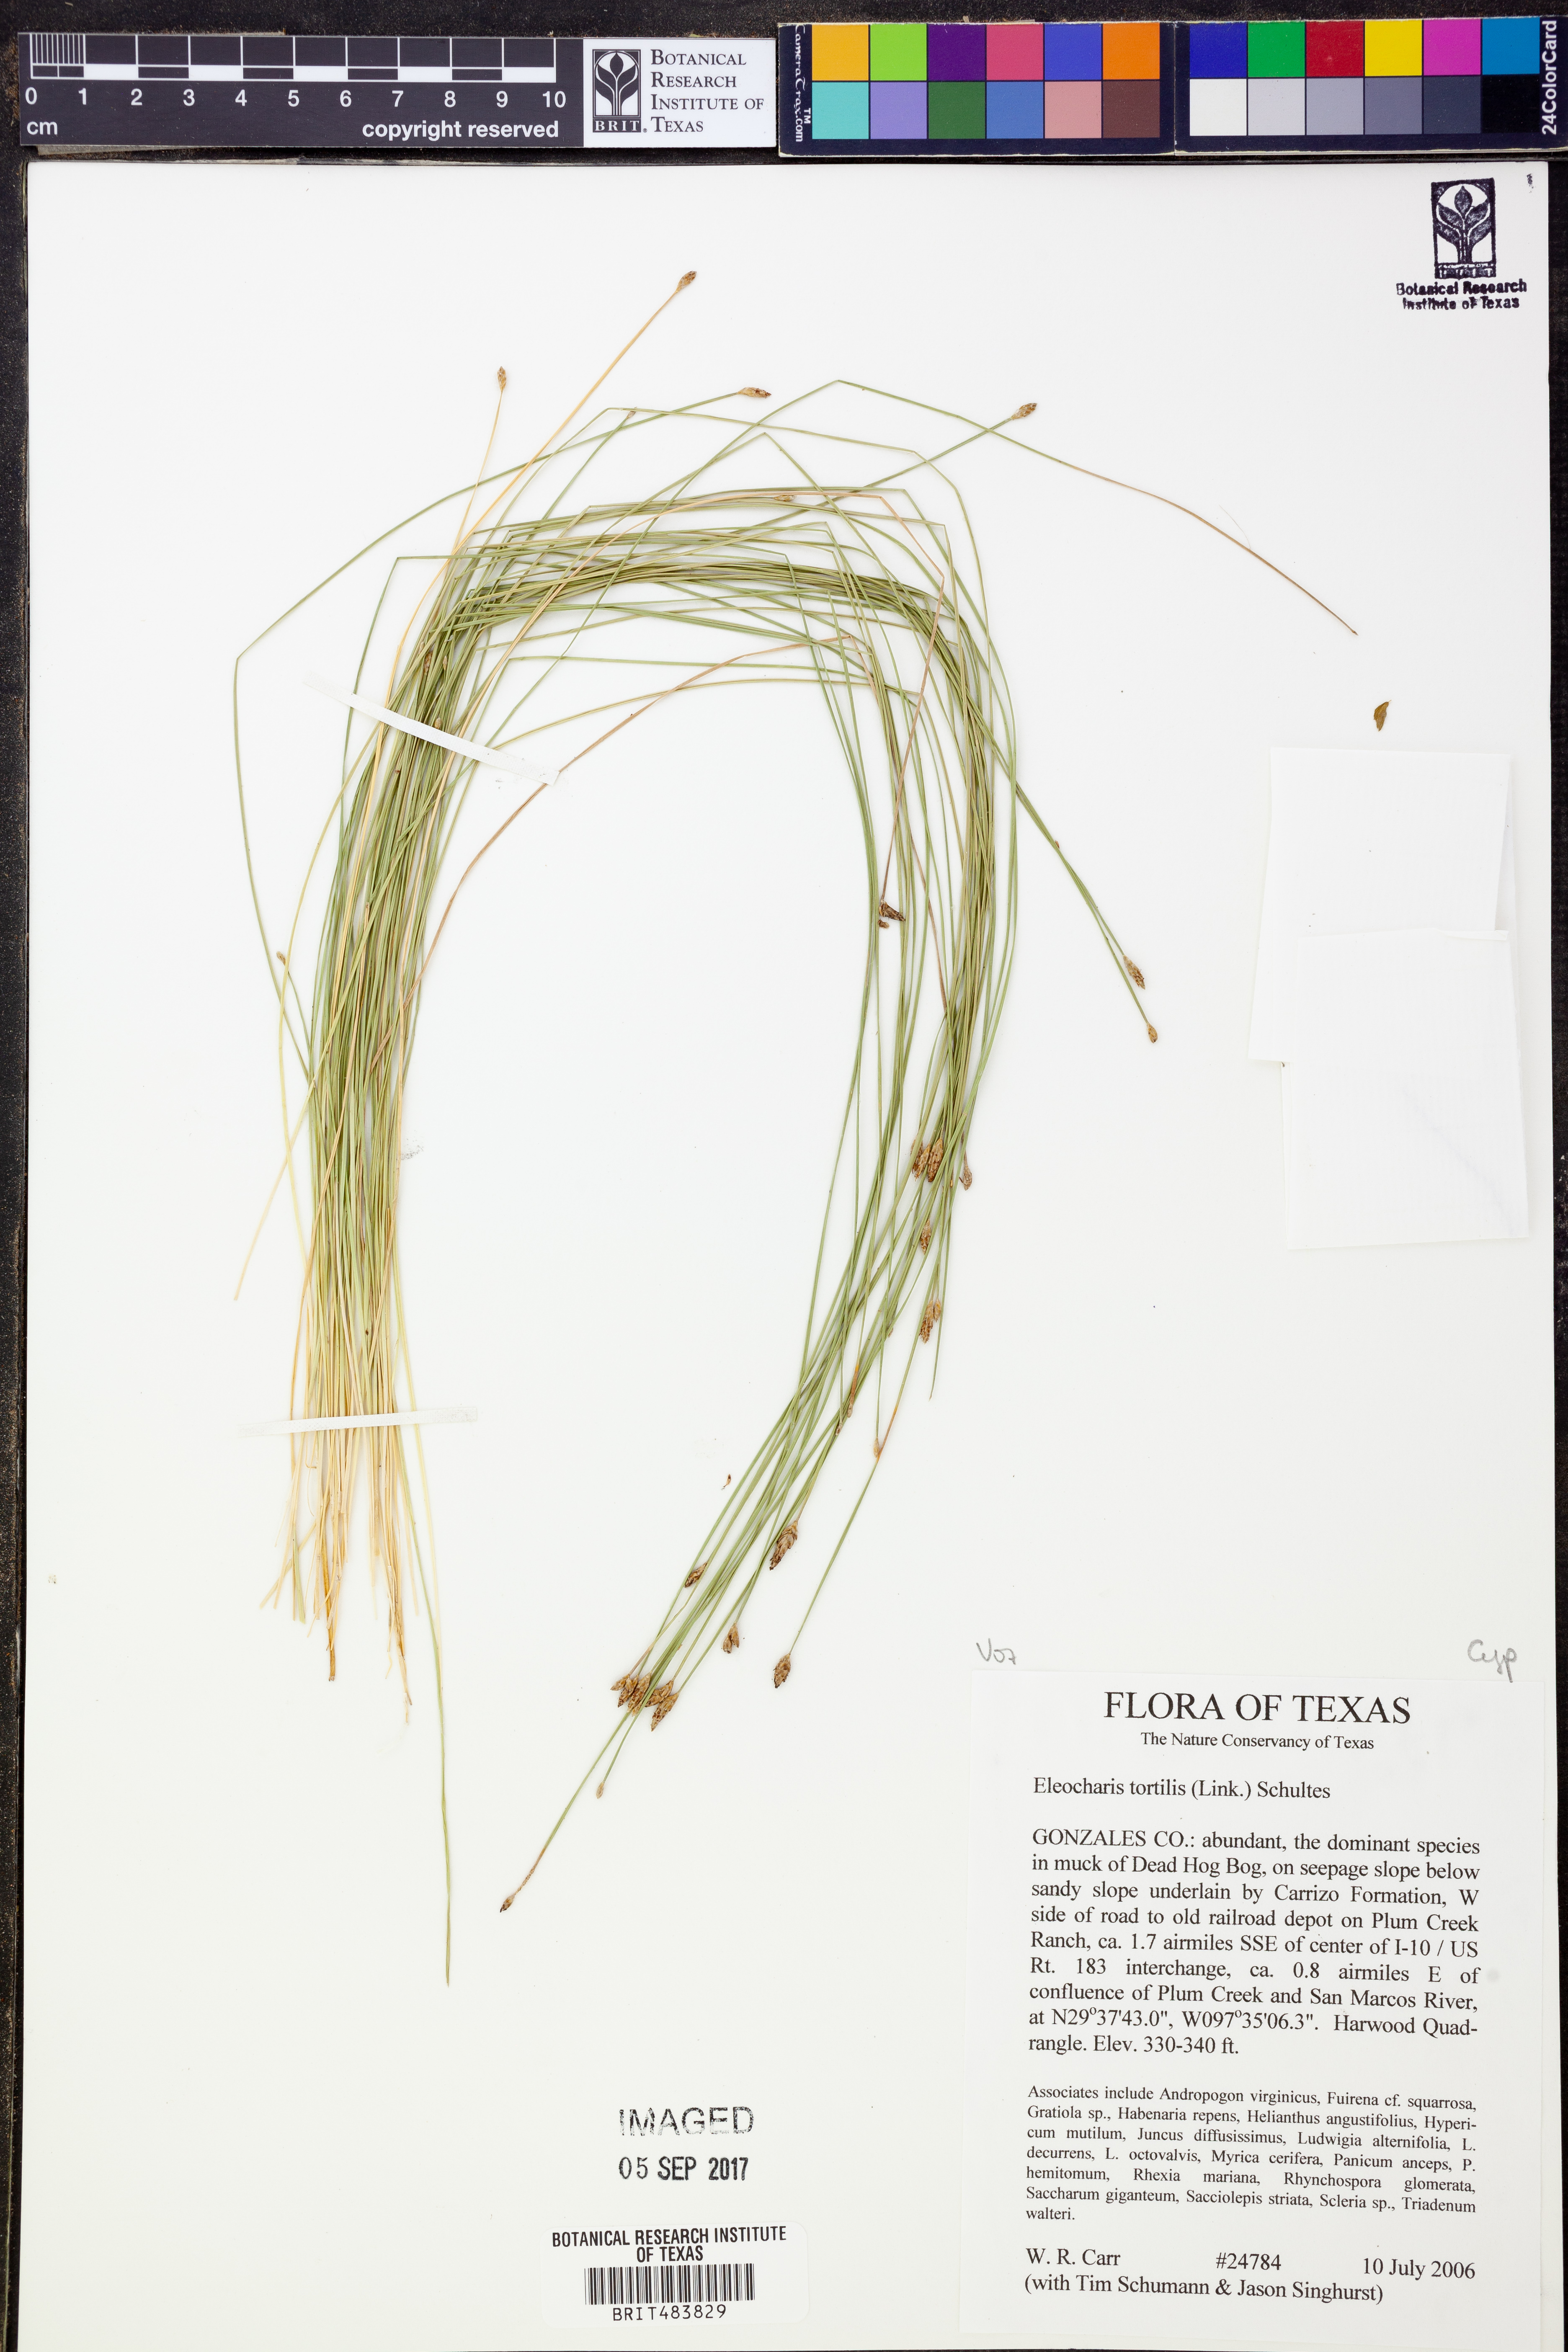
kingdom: Plantae
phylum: Tracheophyta
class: Liliopsida
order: Poales
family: Cyperaceae
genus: Eleocharis
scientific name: Eleocharis tortilis
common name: Twisted spike sedge
